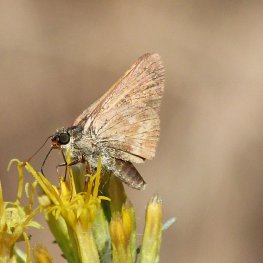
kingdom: Animalia
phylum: Arthropoda
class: Insecta
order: Lepidoptera
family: Hesperiidae
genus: Ochlodes
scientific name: Ochlodes sylvanoides
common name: Woodland Skipper
